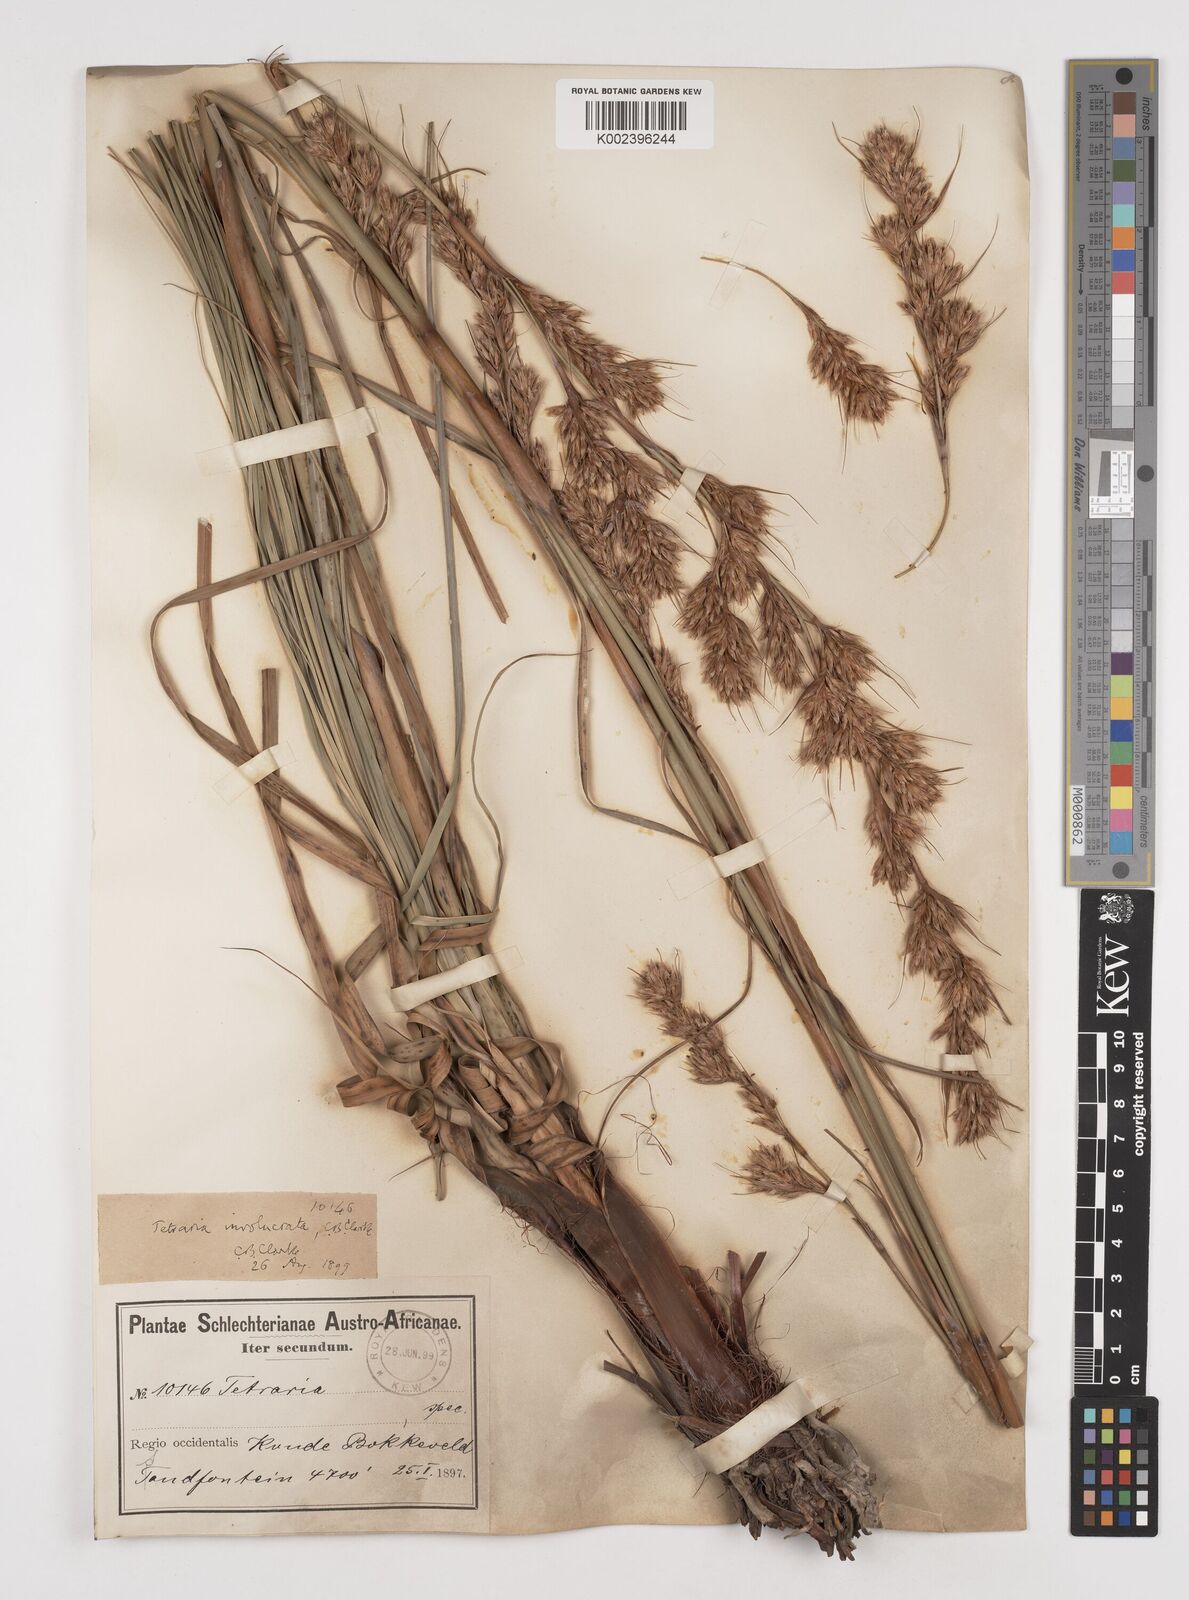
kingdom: Plantae
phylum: Tracheophyta
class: Liliopsida
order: Poales
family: Cyperaceae
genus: Tetraria
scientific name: Tetraria involucrata
